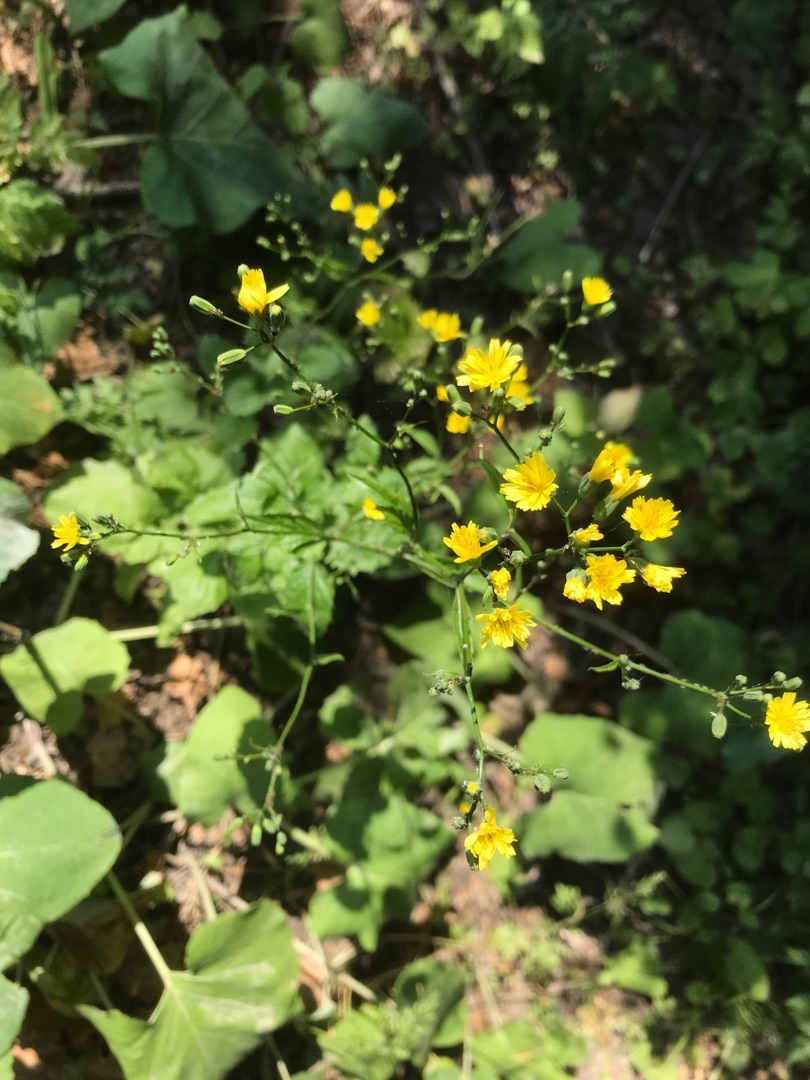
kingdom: Plantae
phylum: Tracheophyta
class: Magnoliopsida
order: Asterales
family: Asteraceae
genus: Lapsana
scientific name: Lapsana communis
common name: Haremad
